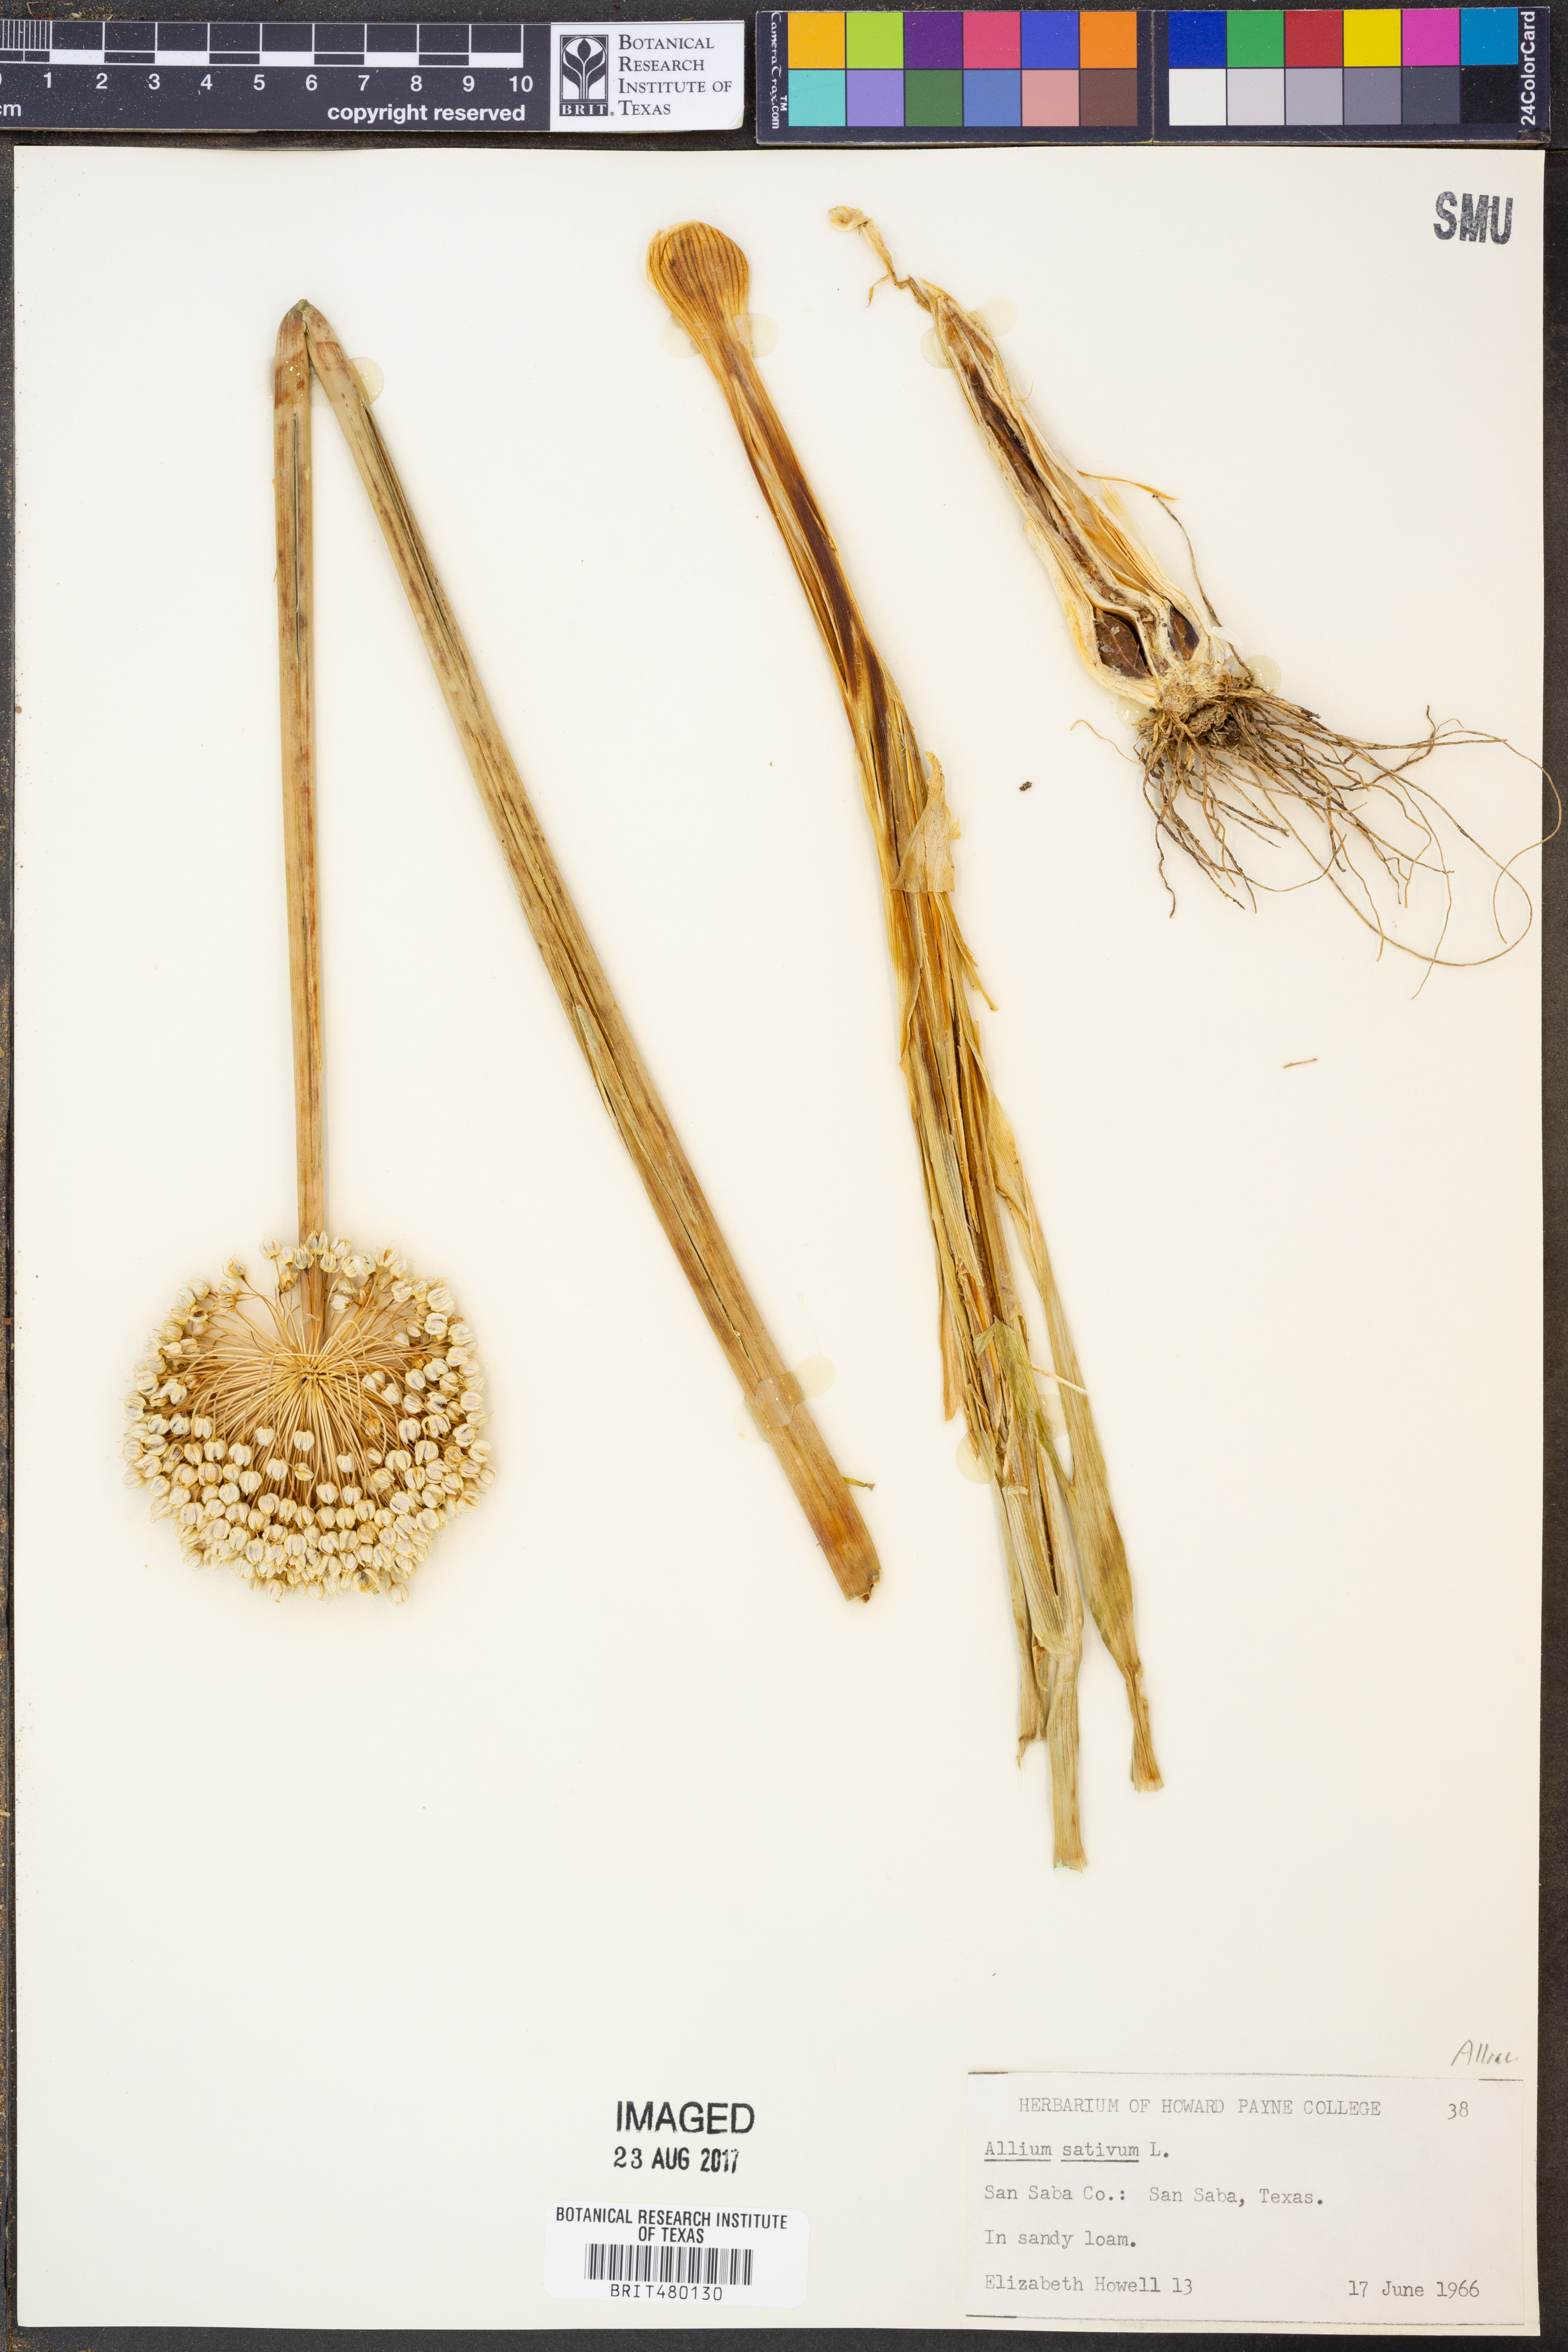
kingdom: Plantae
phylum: Tracheophyta
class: Liliopsida
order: Asparagales
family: Amaryllidaceae
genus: Allium
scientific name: Allium sativum
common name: Garlic
